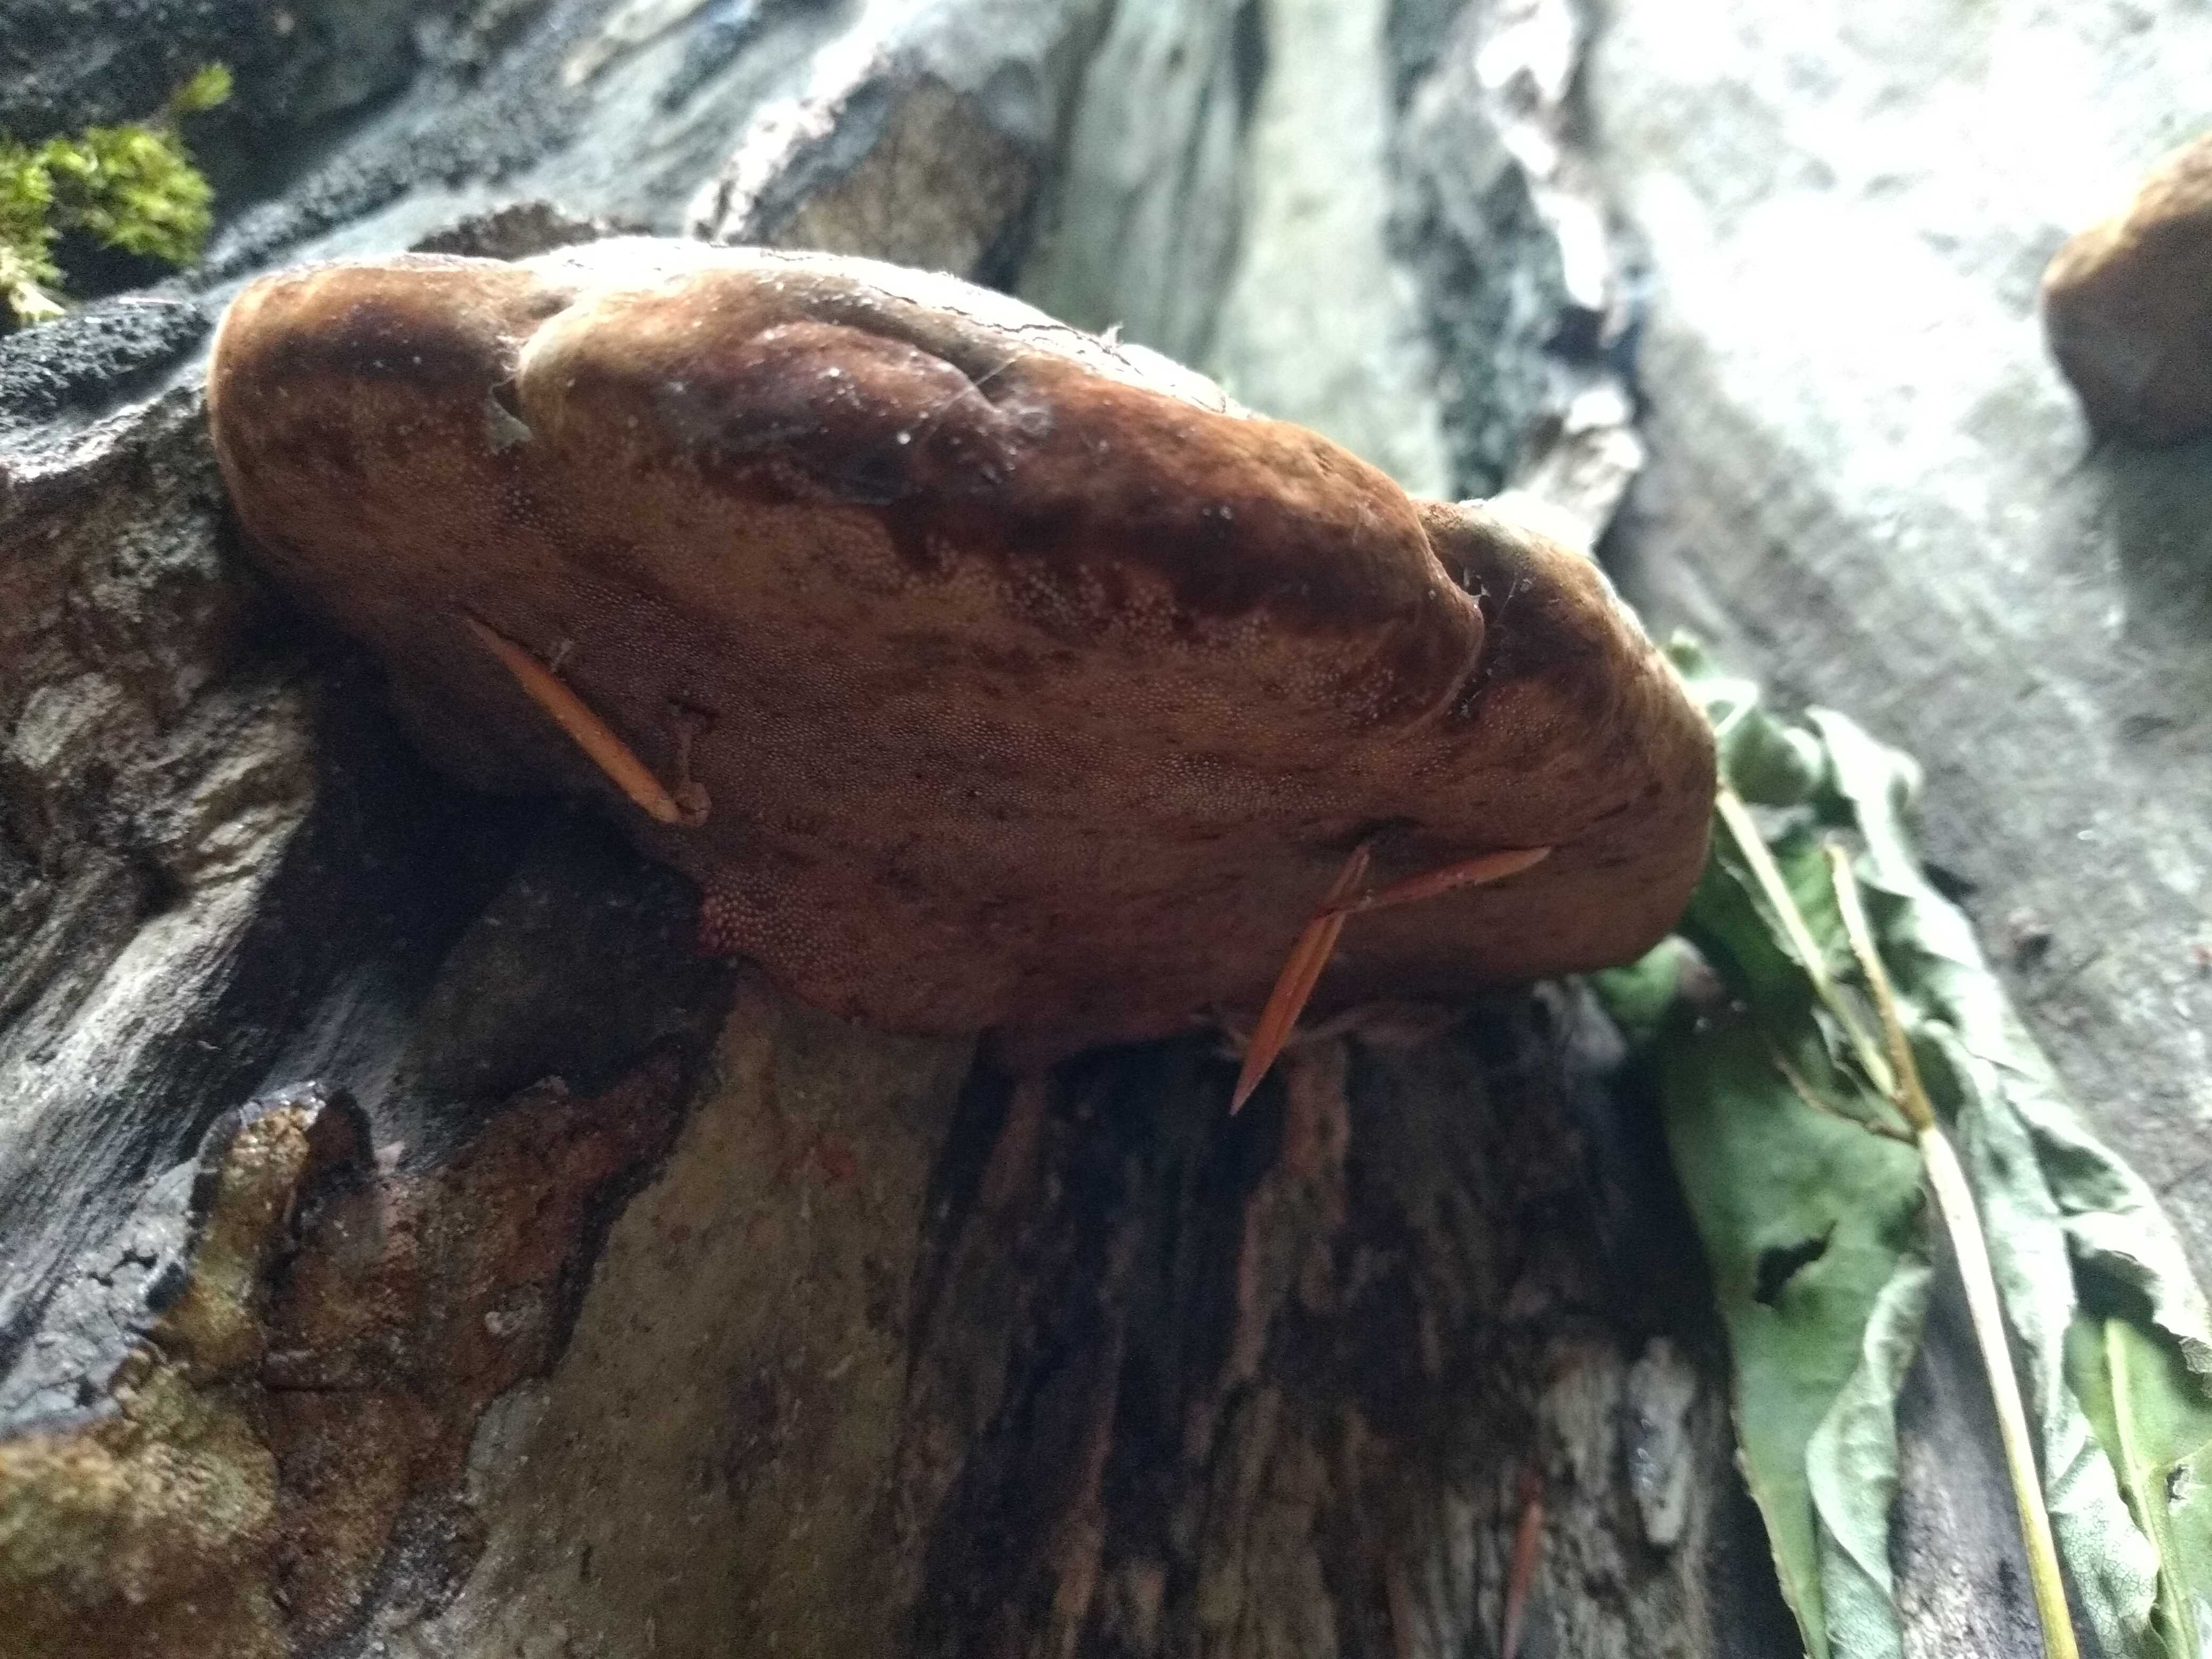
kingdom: Fungi
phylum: Basidiomycota
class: Agaricomycetes
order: Polyporales
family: Fomitopsidaceae
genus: Fomitopsis
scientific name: Fomitopsis pinicola
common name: randbæltet hovporesvamp
